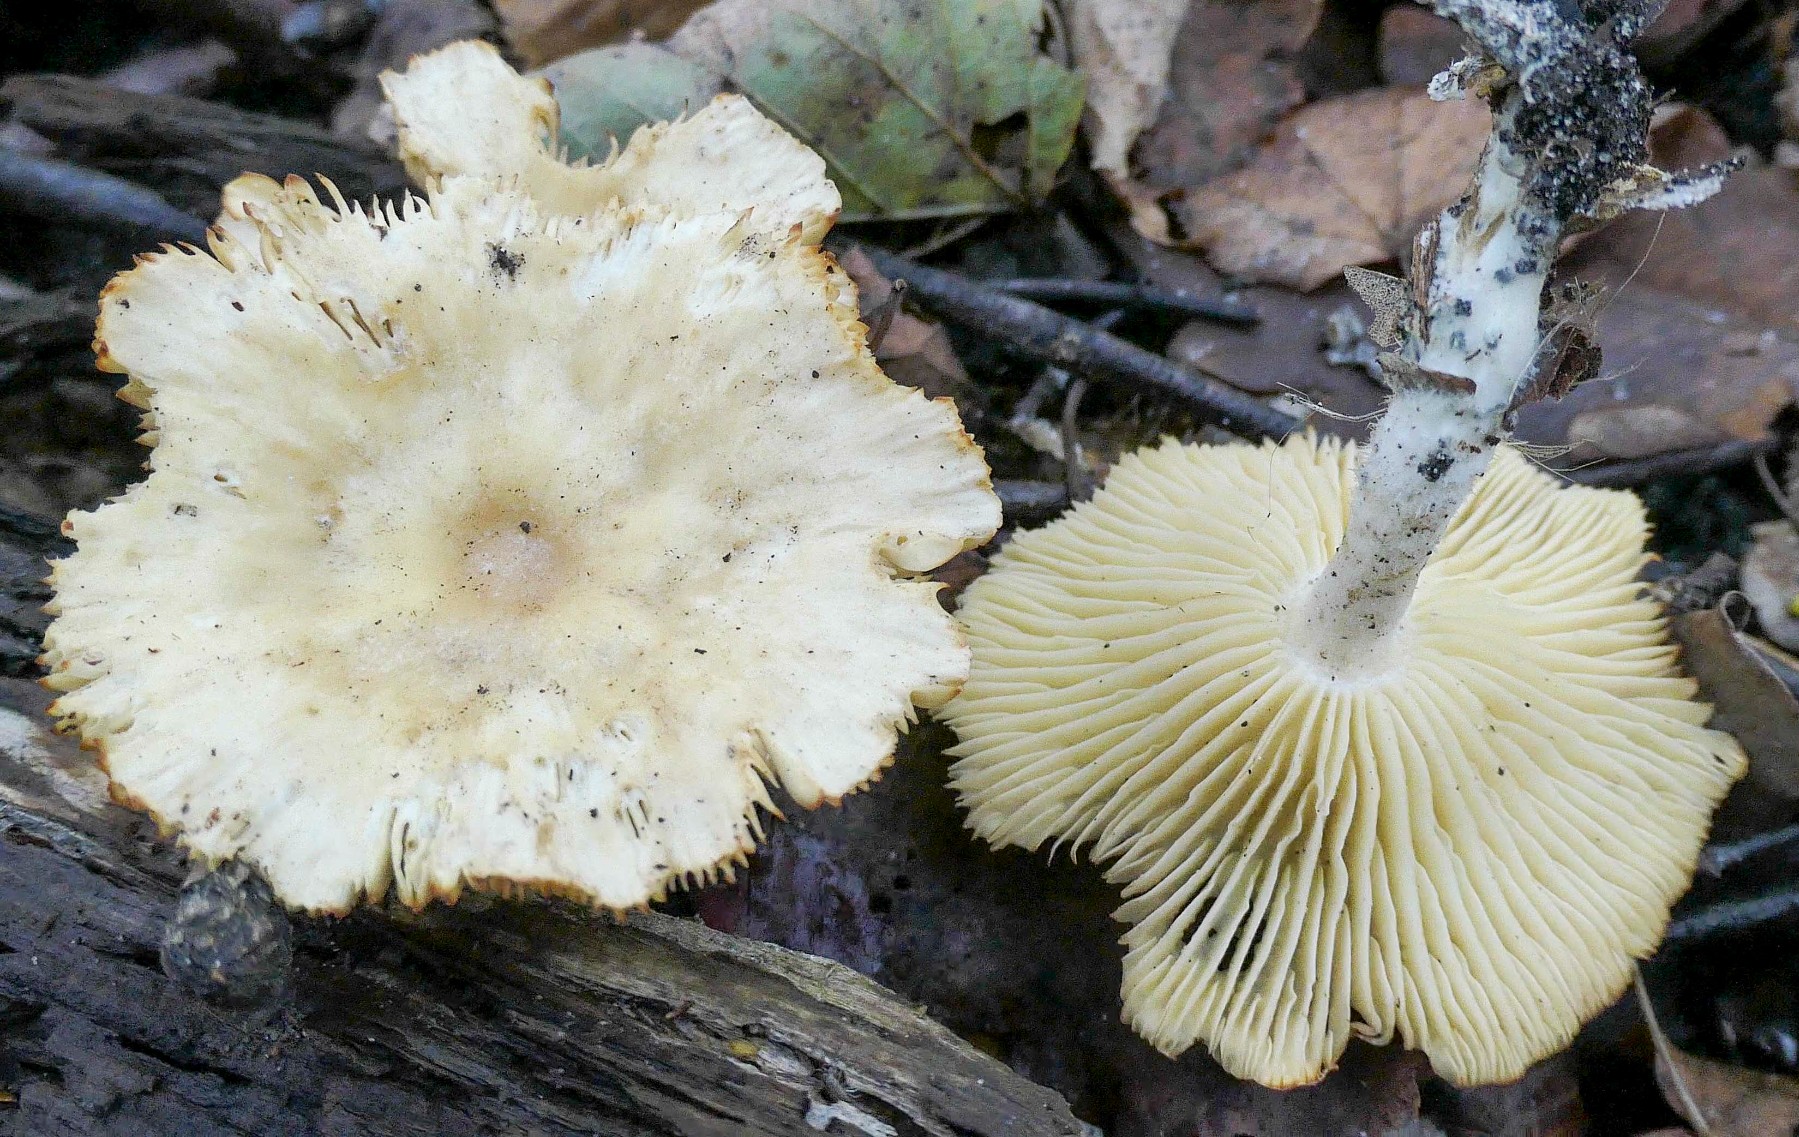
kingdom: Fungi
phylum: Basidiomycota
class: Agaricomycetes
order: Agaricales
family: Omphalotaceae
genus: Gymnopus
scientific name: Gymnopus hariolorum
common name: hvidkåls-fladhat
